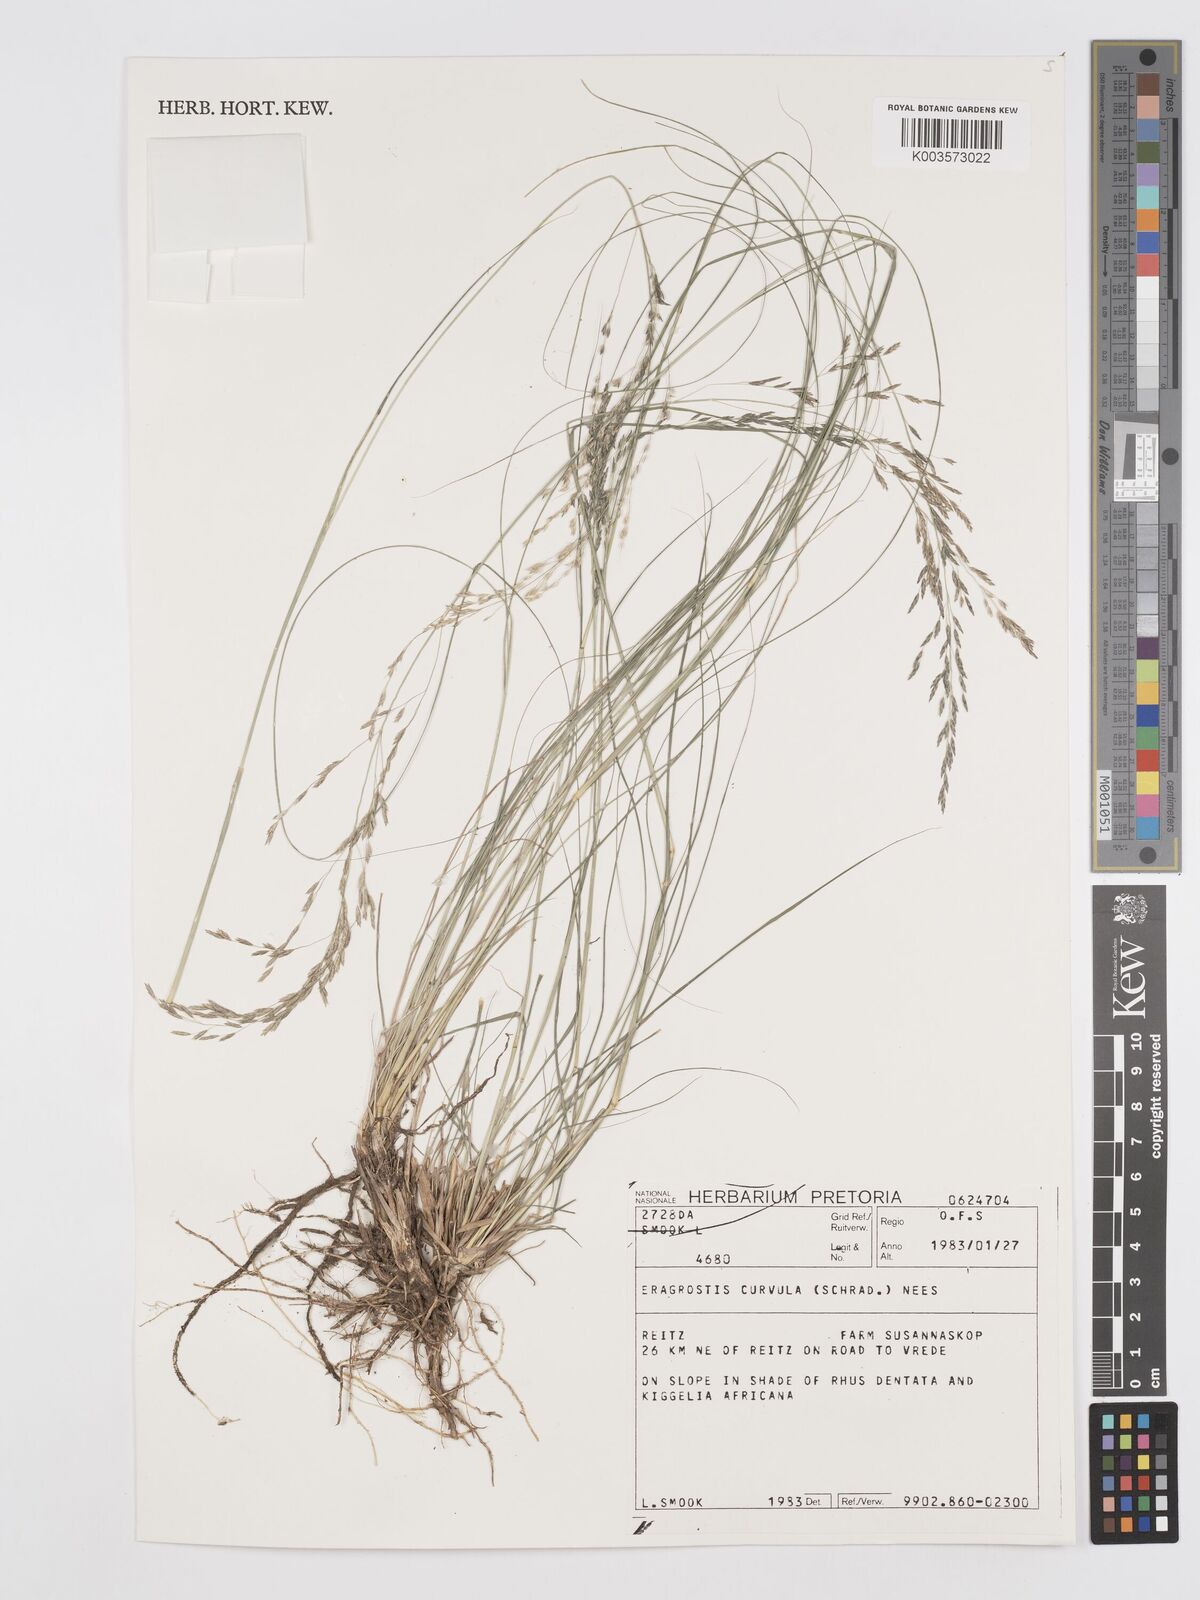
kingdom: Plantae
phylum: Tracheophyta
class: Liliopsida
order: Poales
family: Poaceae
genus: Eragrostis
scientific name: Eragrostis curvula
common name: African love-grass
